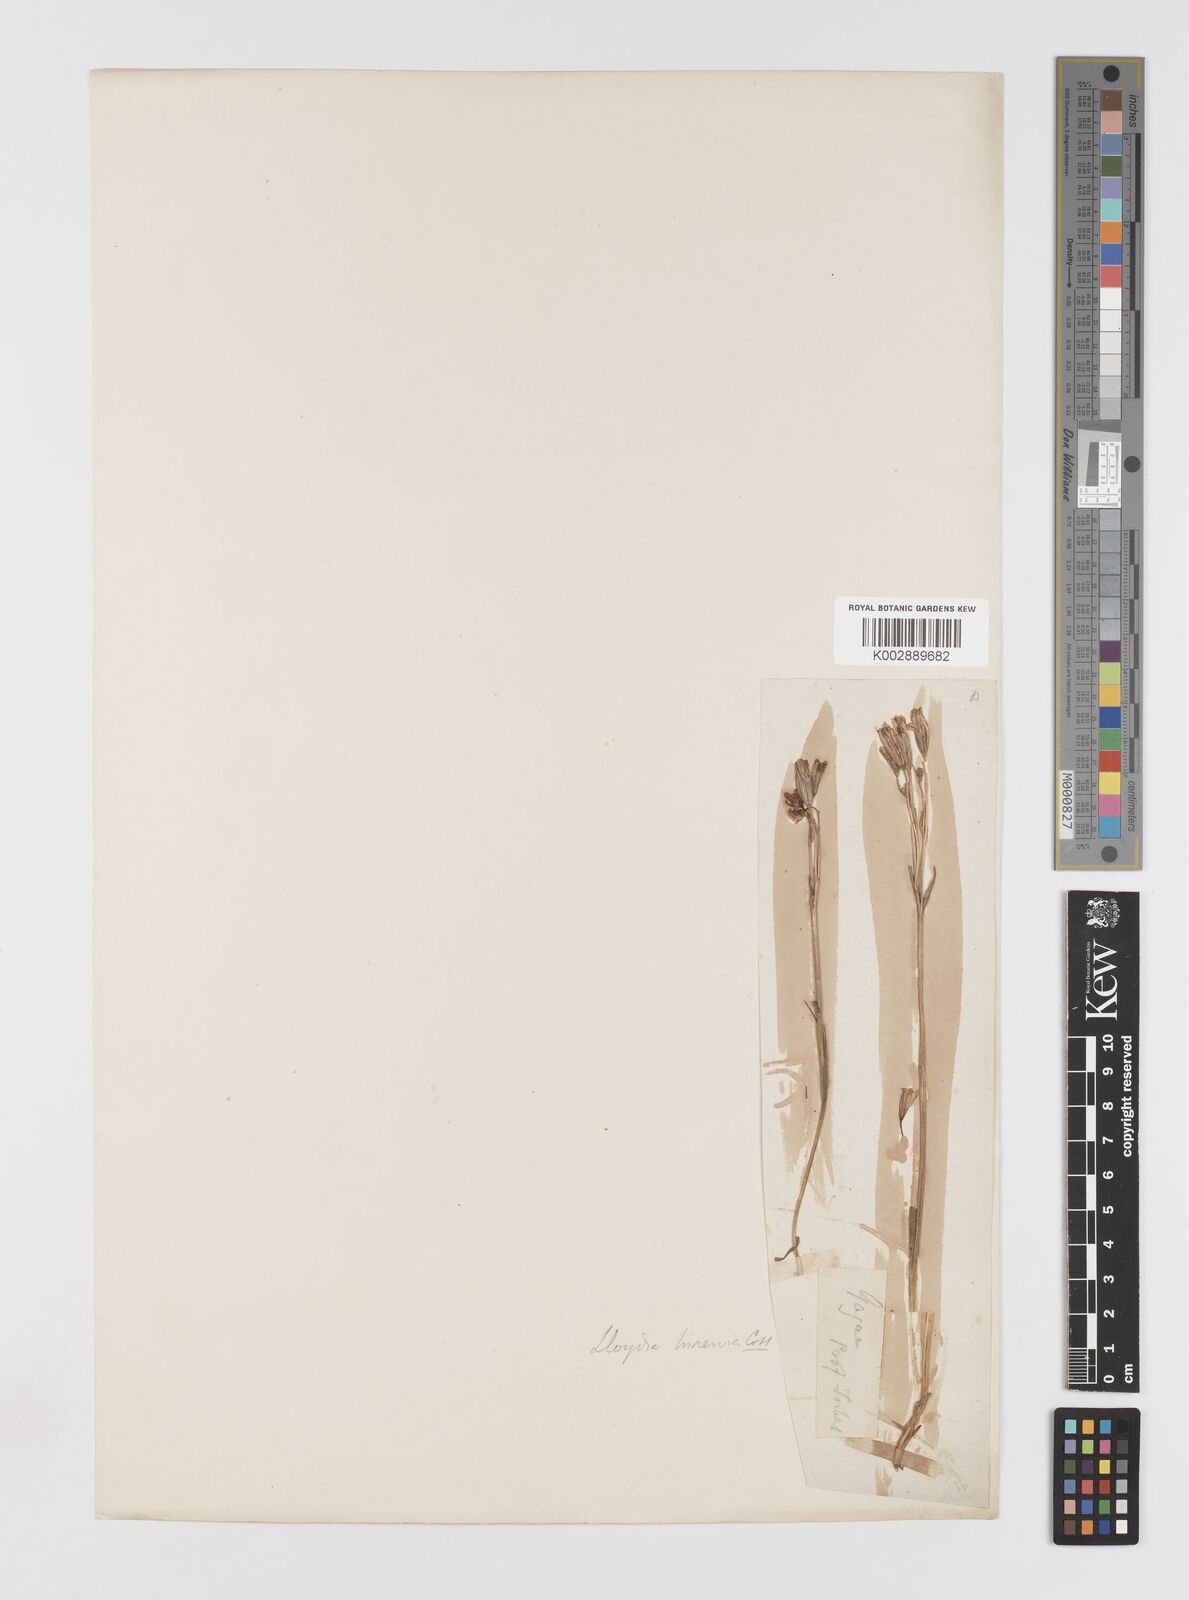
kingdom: Plantae
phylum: Tracheophyta
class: Liliopsida
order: Liliales
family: Liliaceae
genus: Gagea
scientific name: Gagea triflora
